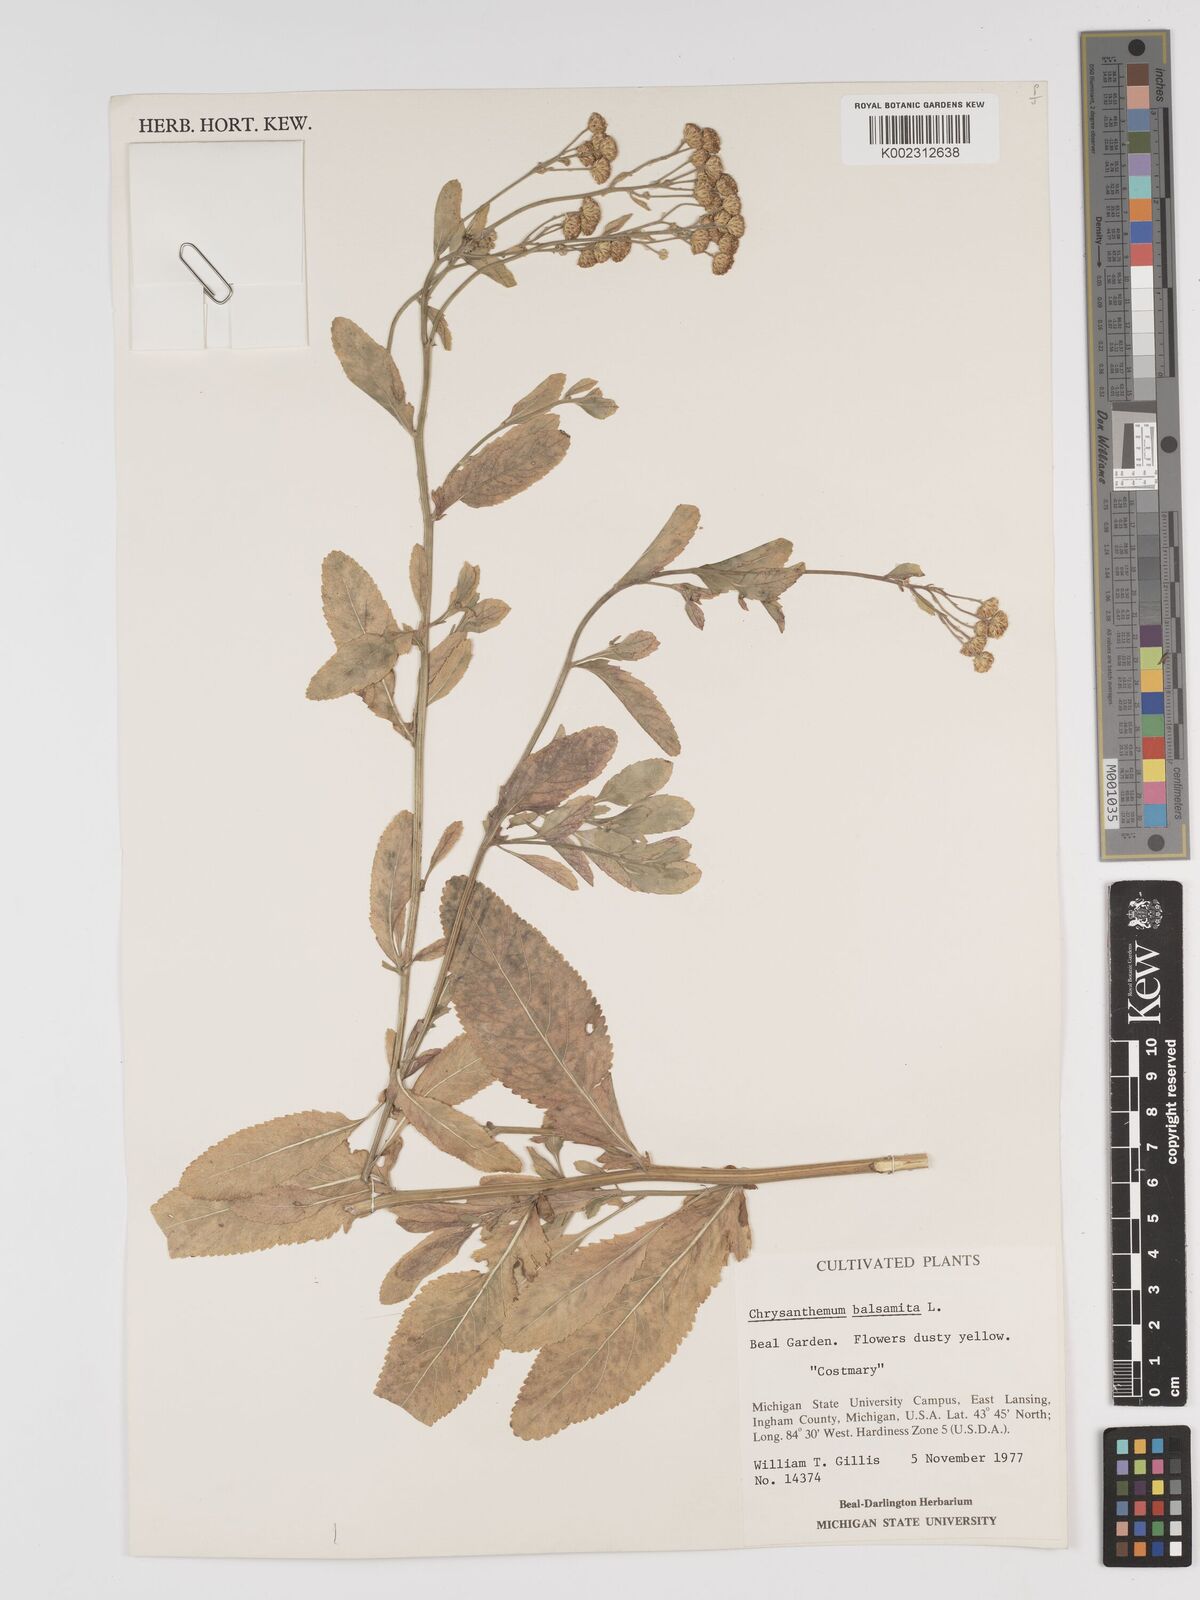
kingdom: Plantae
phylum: Tracheophyta
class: Magnoliopsida
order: Asterales
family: Asteraceae
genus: Tanacetum
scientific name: Tanacetum balsamita
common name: Costmary
